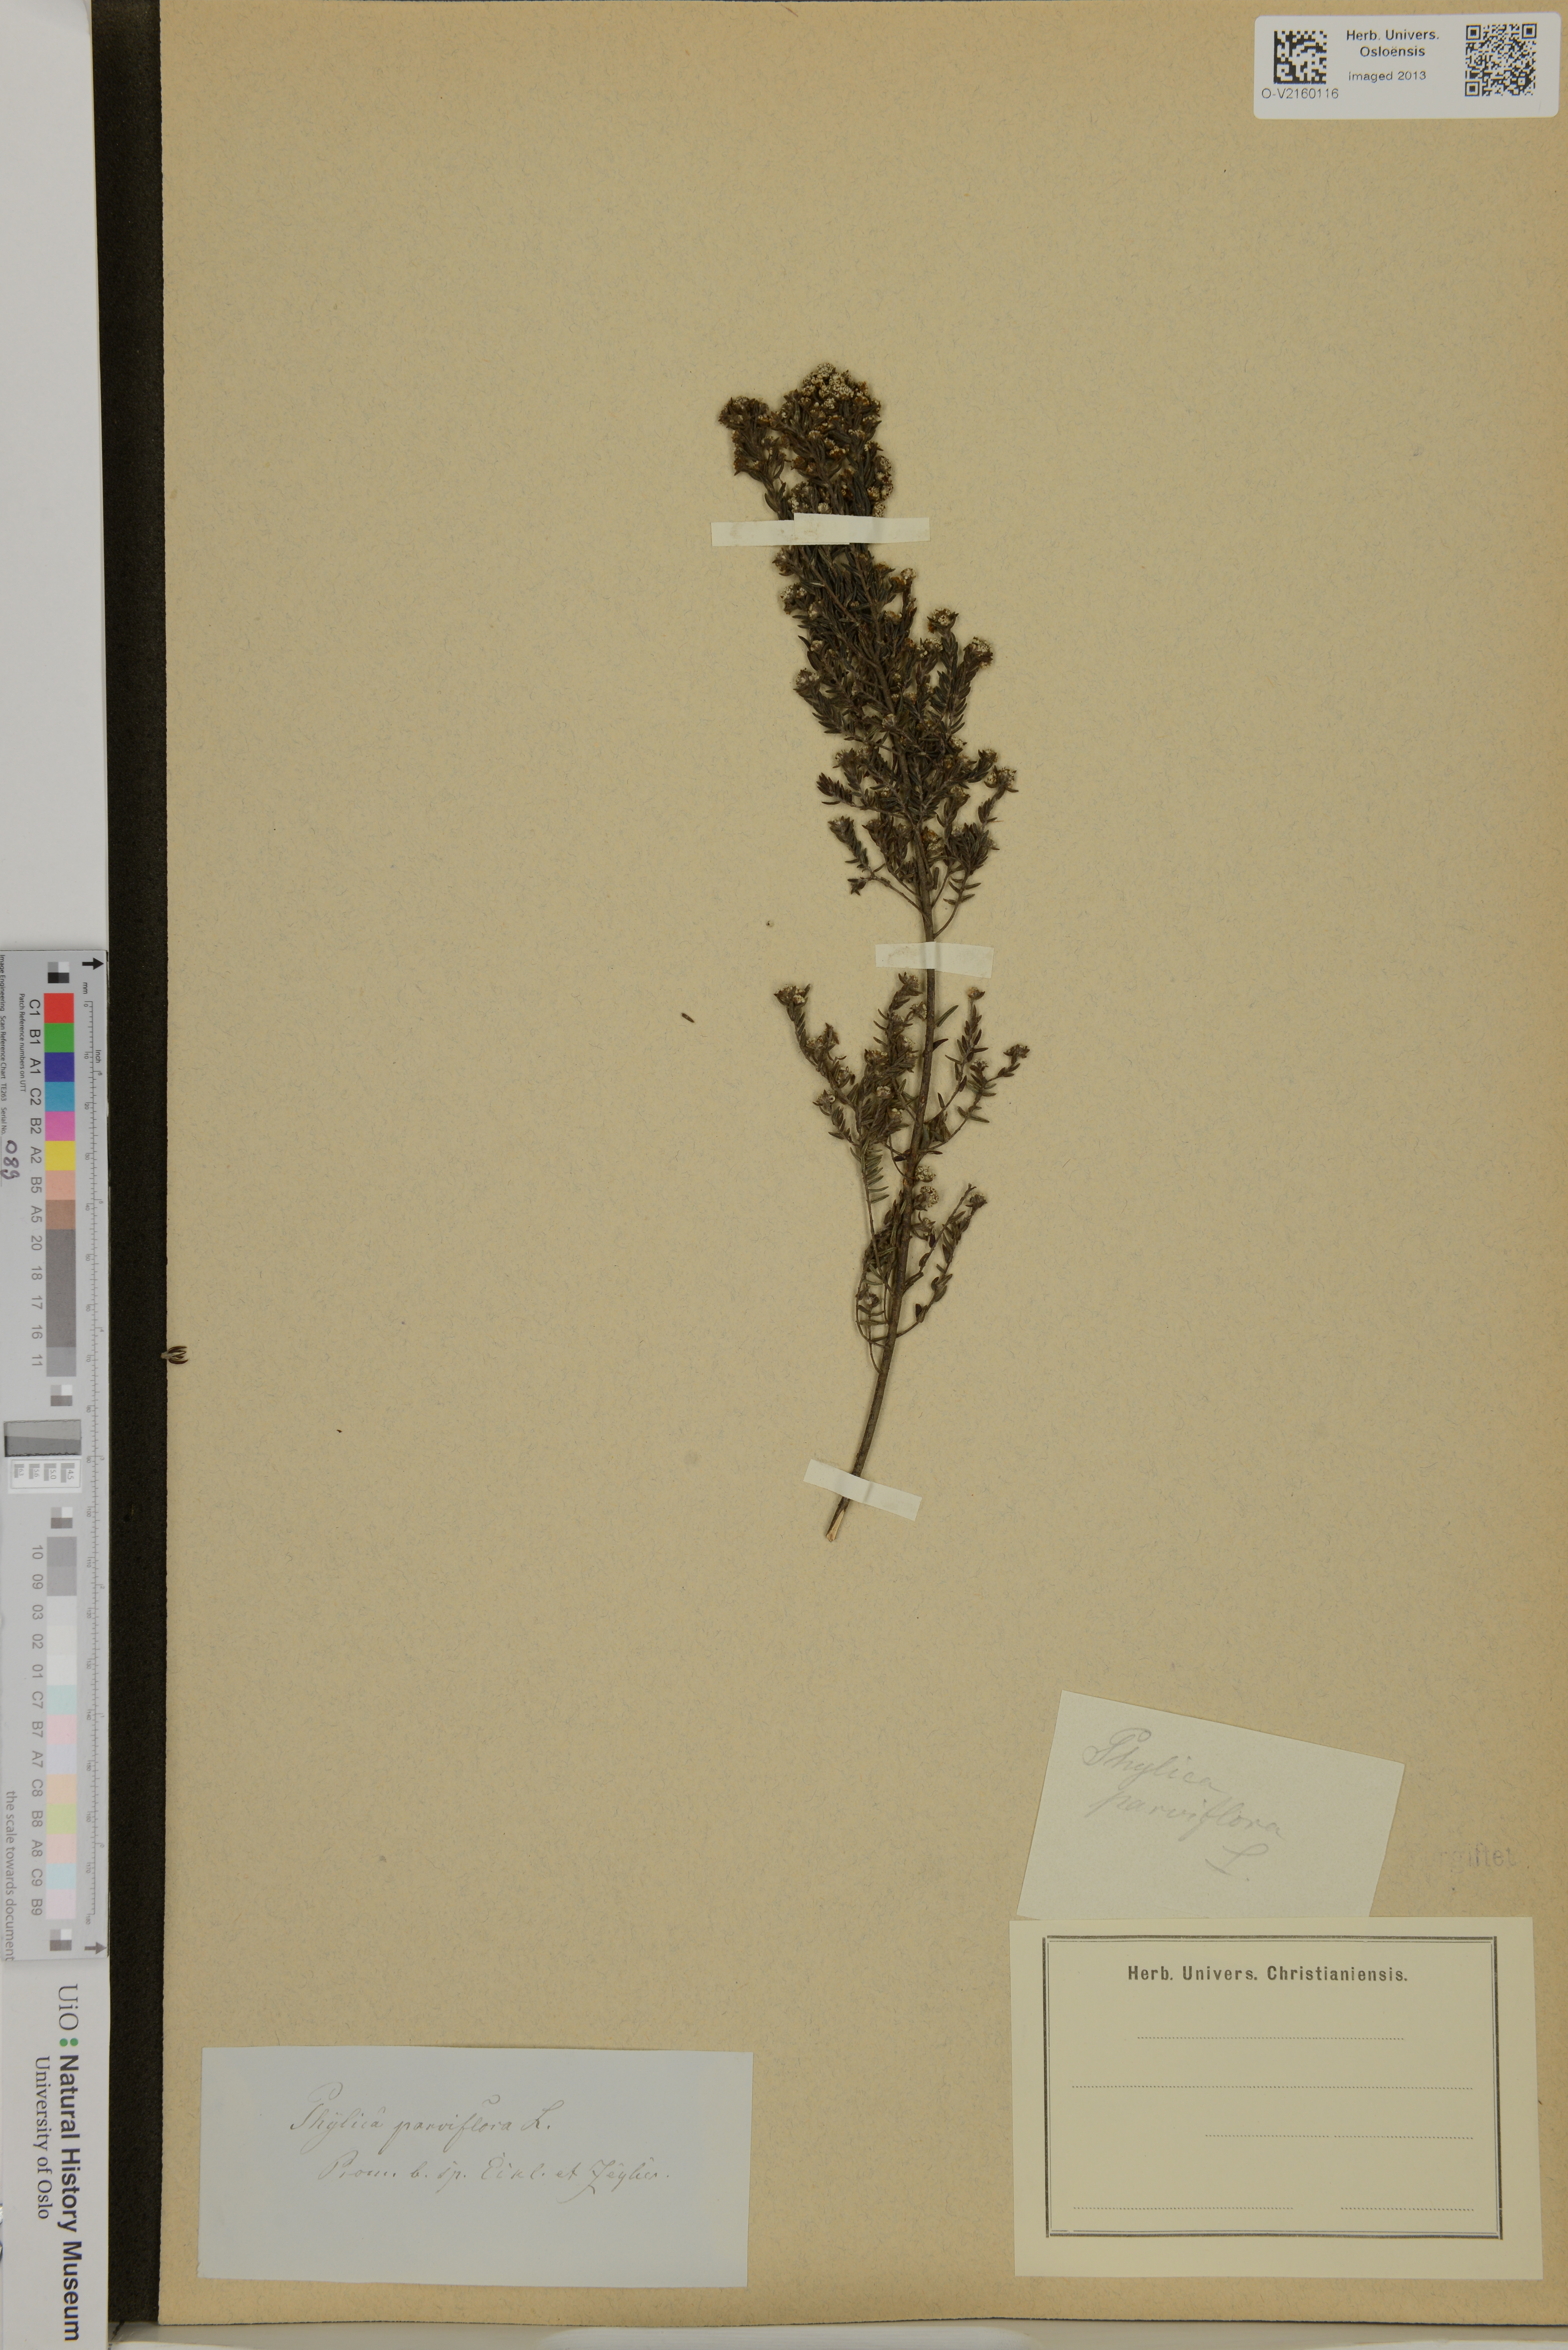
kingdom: Plantae
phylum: Tracheophyta
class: Magnoliopsida
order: Rosales
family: Rhamnaceae
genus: Phylica
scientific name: Phylica parviflora
